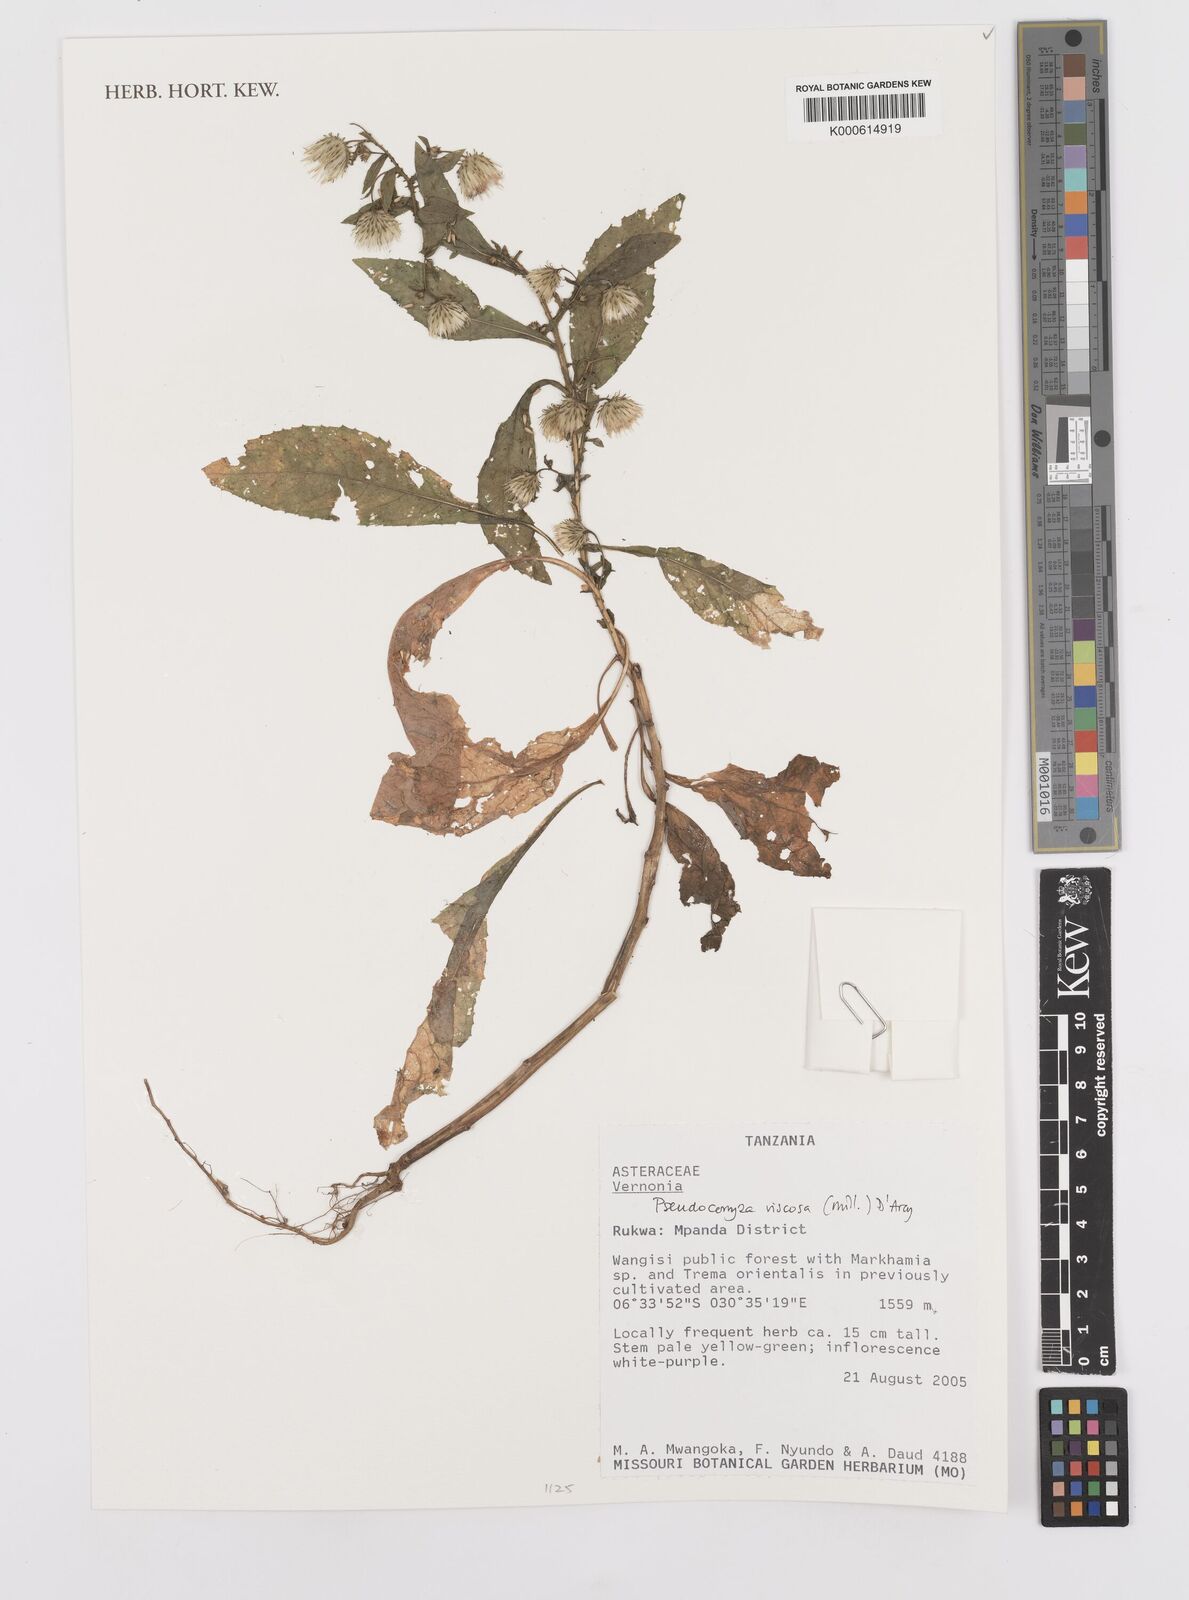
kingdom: Plantae
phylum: Tracheophyta
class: Magnoliopsida
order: Asterales
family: Asteraceae
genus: Pseudoconyza
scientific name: Pseudoconyza viscosa
